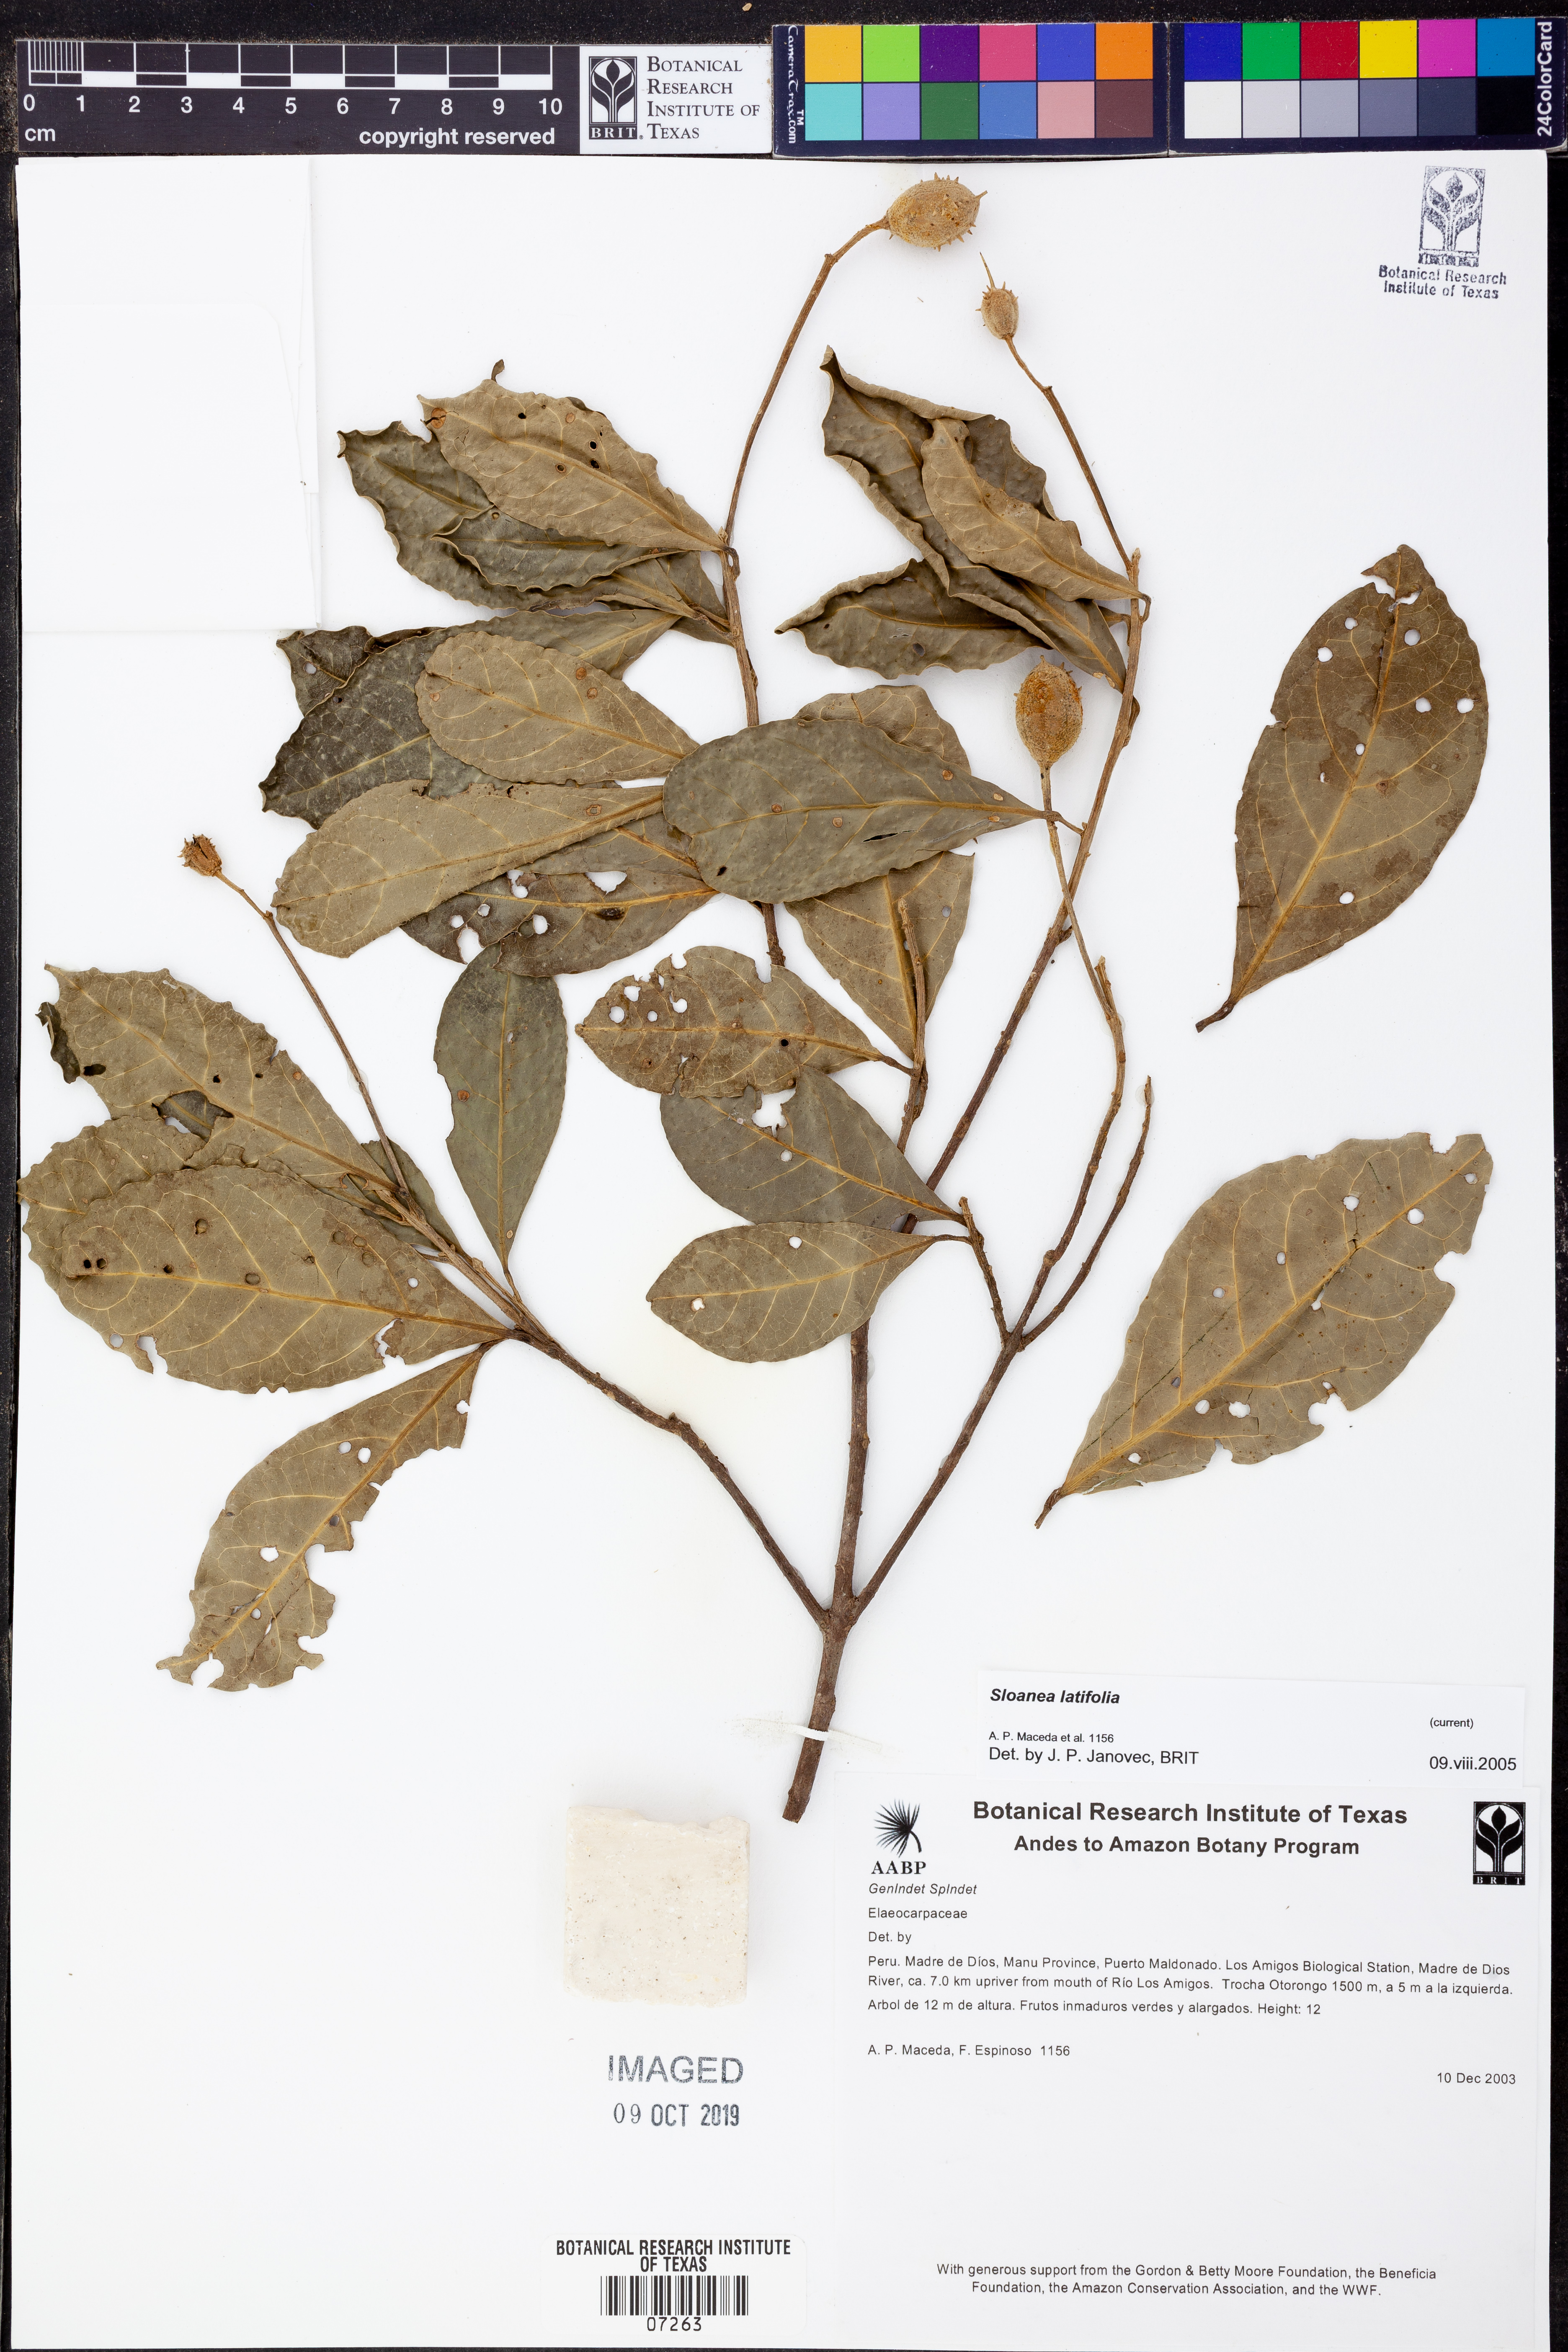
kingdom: Plantae
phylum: Tracheophyta
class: Magnoliopsida
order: Oxalidales
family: Elaeocarpaceae
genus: Sloanea
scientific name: Sloanea
